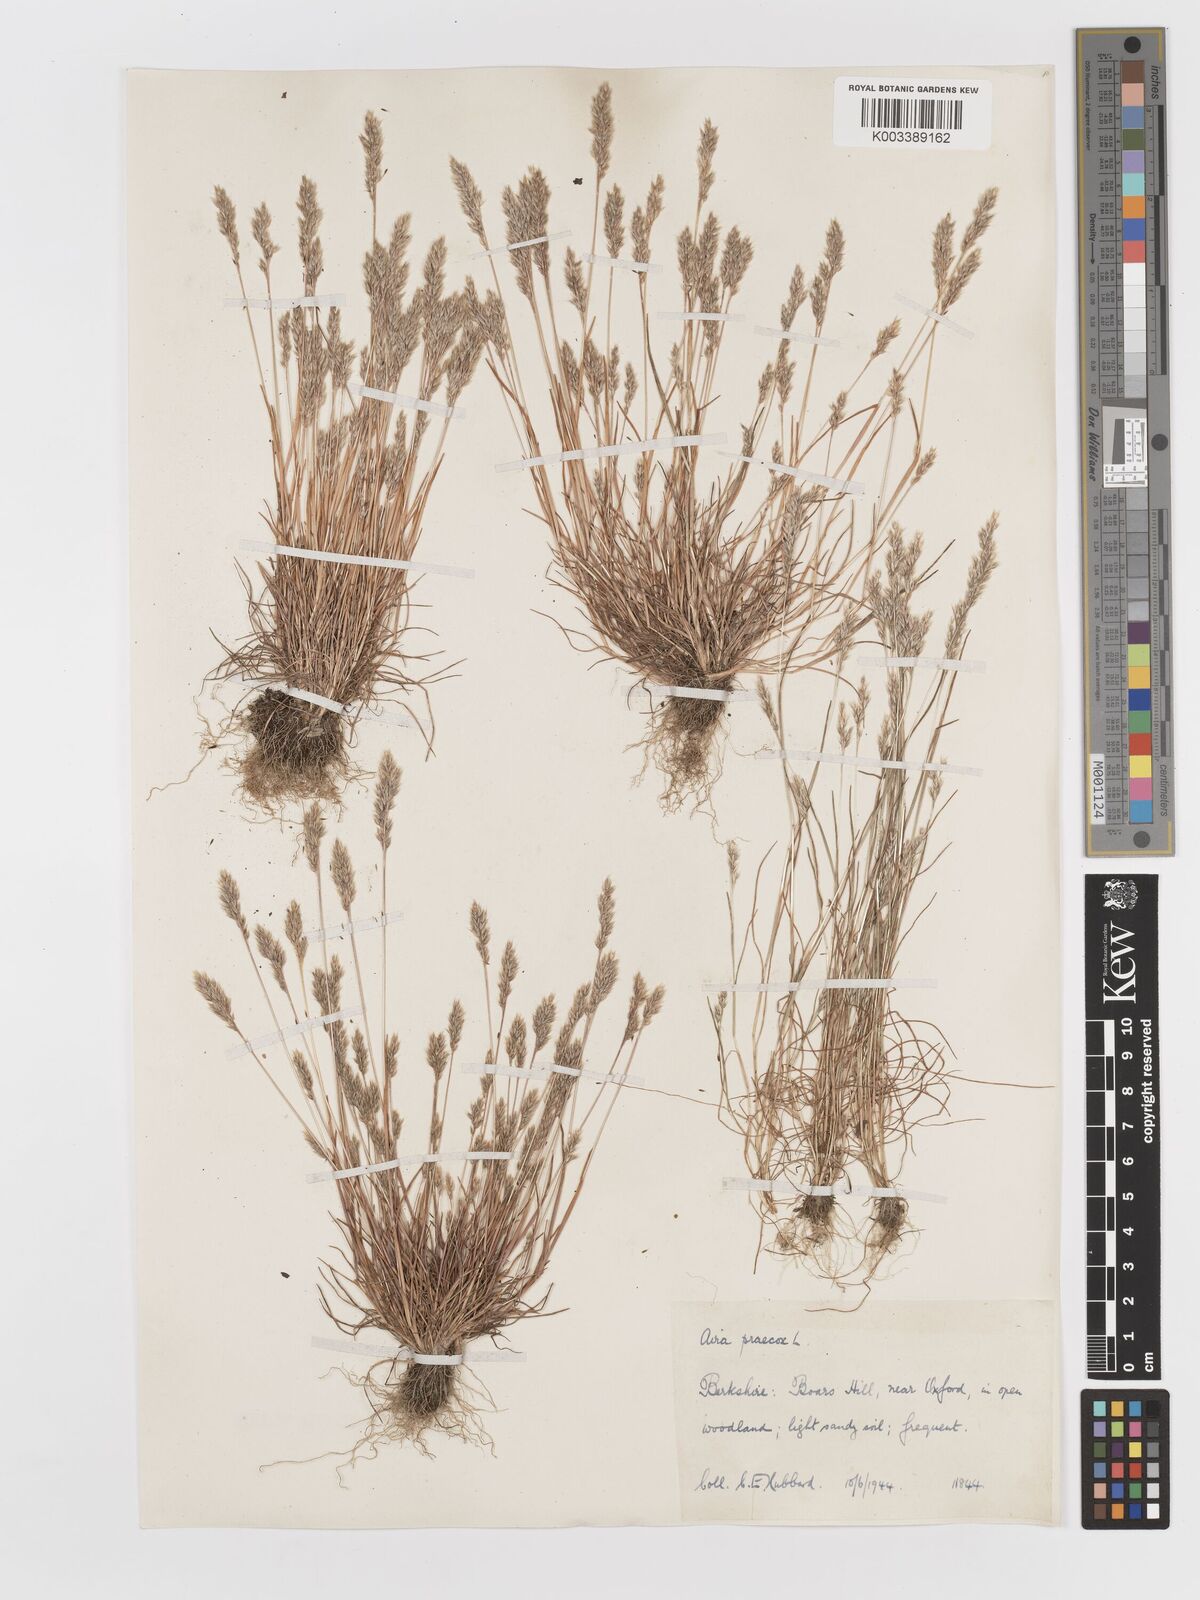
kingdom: Plantae
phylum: Tracheophyta
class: Liliopsida
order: Poales
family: Poaceae
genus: Aira
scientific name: Aira praecox
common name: Early hair-grass
